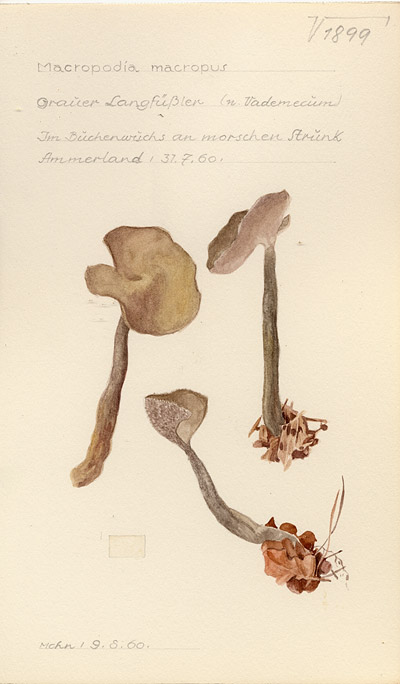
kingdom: Fungi
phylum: Ascomycota
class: Pezizomycetes
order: Pezizales
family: Helvellaceae
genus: Helvella
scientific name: Helvella macropus
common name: Felt saddle
